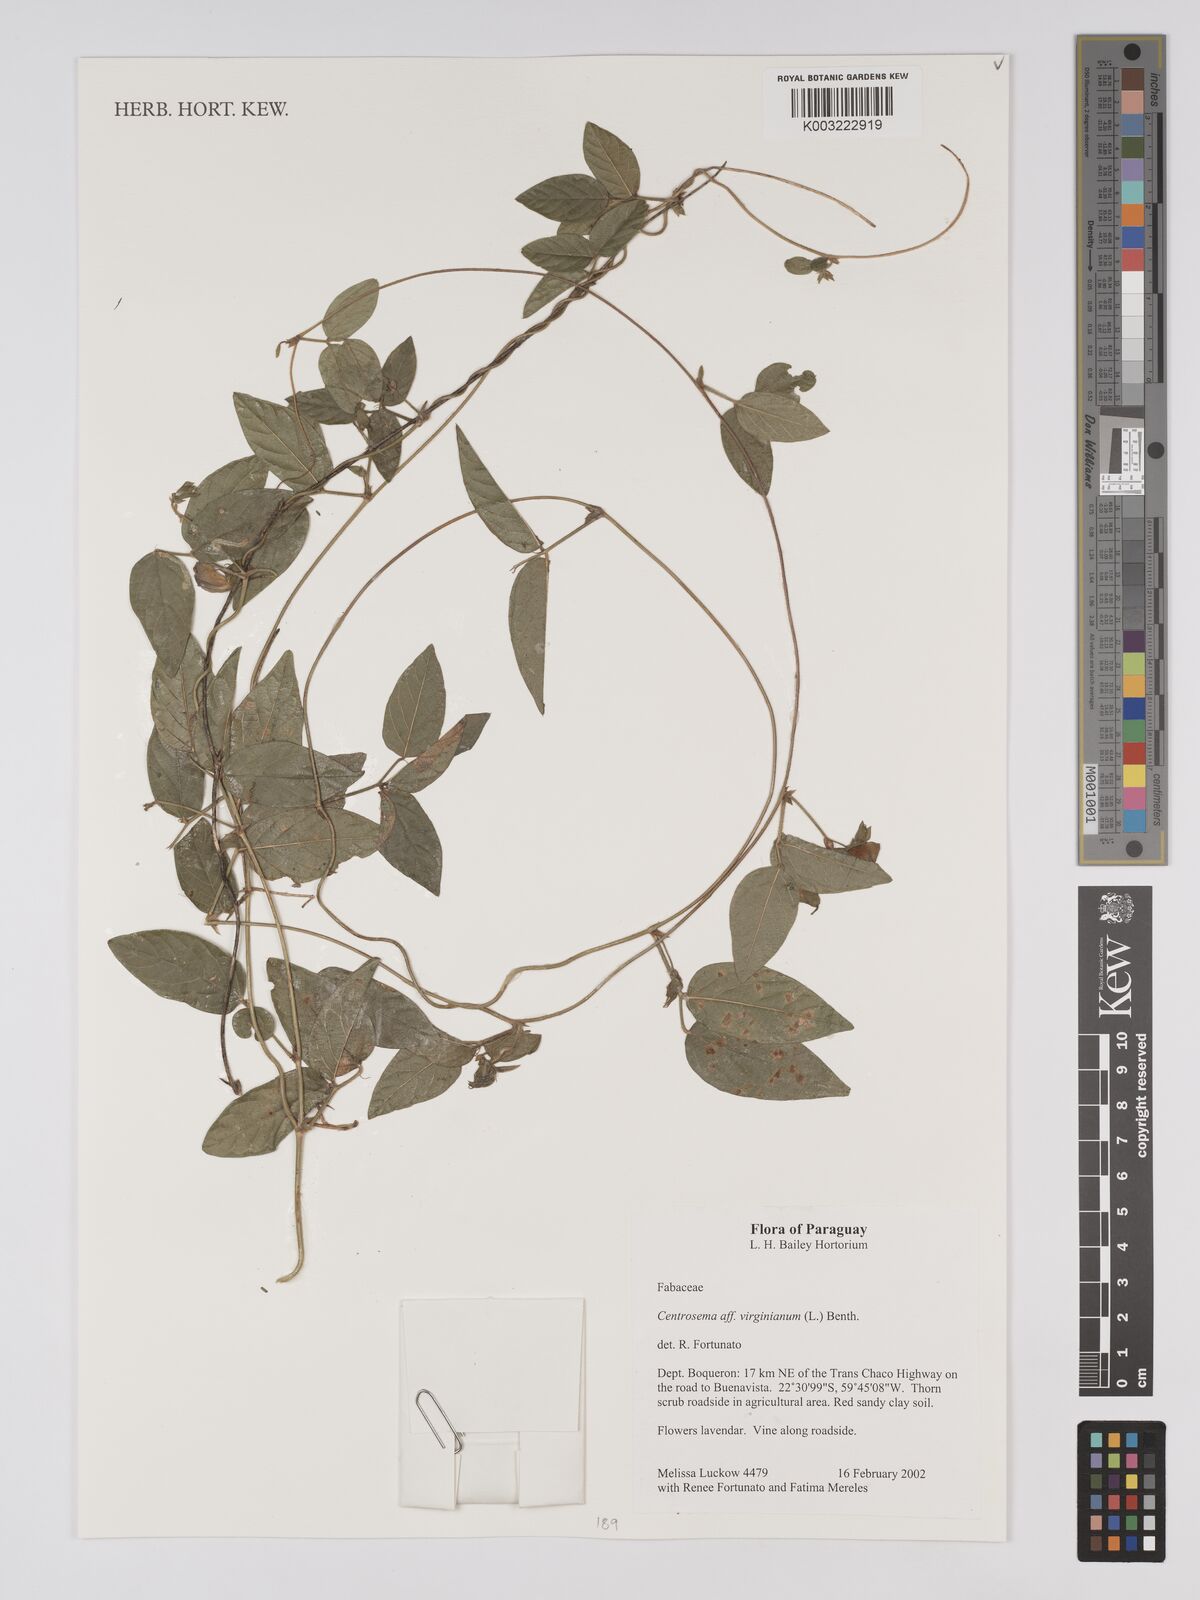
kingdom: Plantae
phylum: Tracheophyta
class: Magnoliopsida
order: Fabales
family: Fabaceae
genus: Centrosema
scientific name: Centrosema virginianum
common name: Butterfly-pea
